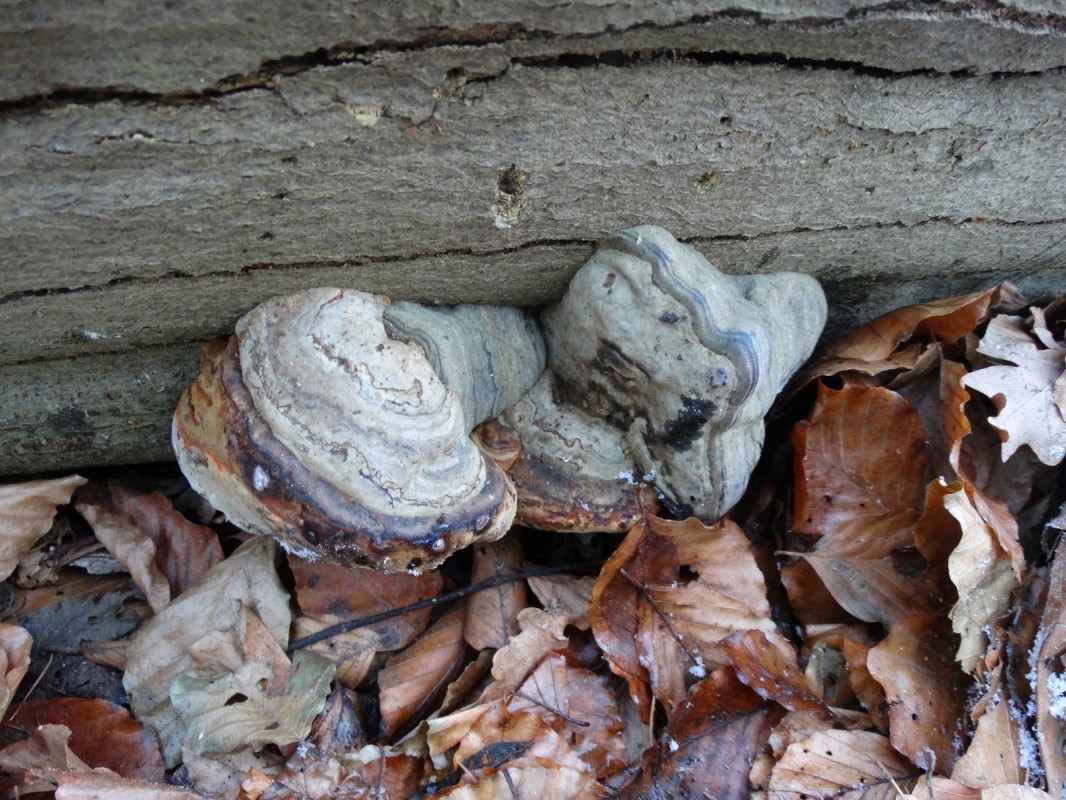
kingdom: Fungi
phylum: Basidiomycota
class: Agaricomycetes
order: Polyporales
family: Polyporaceae
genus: Fomes
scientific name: Fomes fomentarius
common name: tøndersvamp
